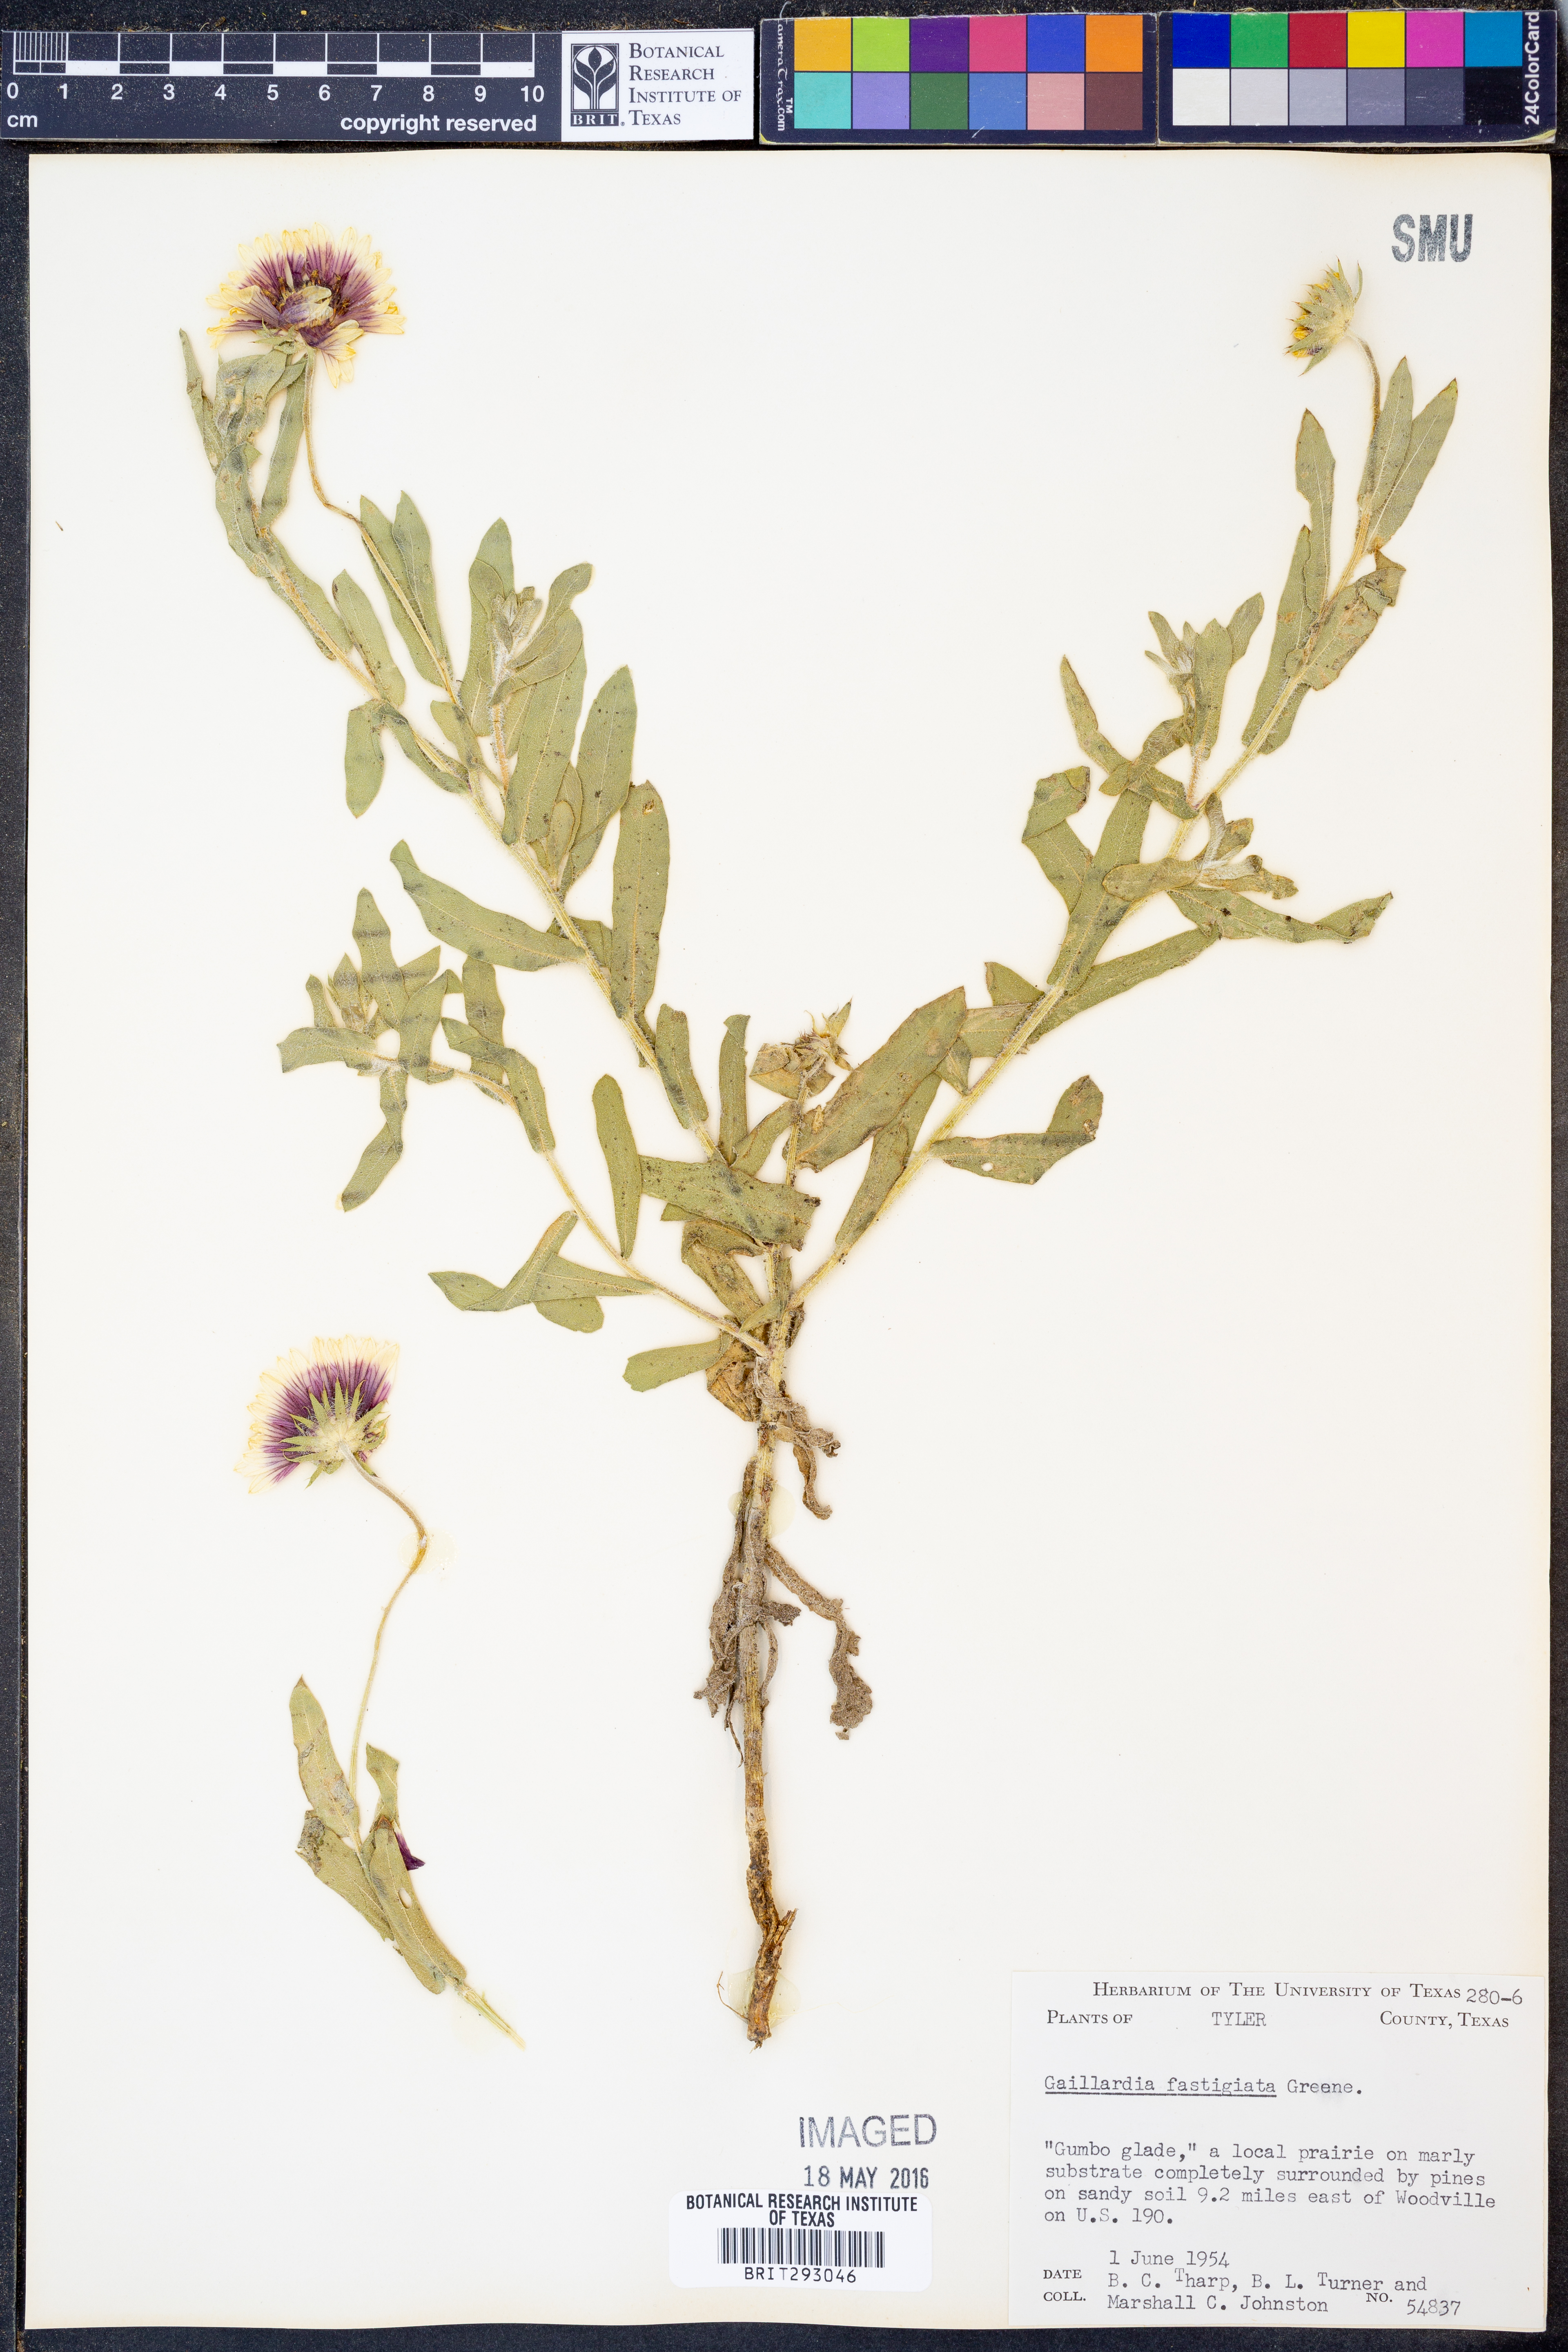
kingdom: Plantae
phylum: Tracheophyta
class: Magnoliopsida
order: Asterales
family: Asteraceae
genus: Gaillardia
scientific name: Gaillardia aestivalis
